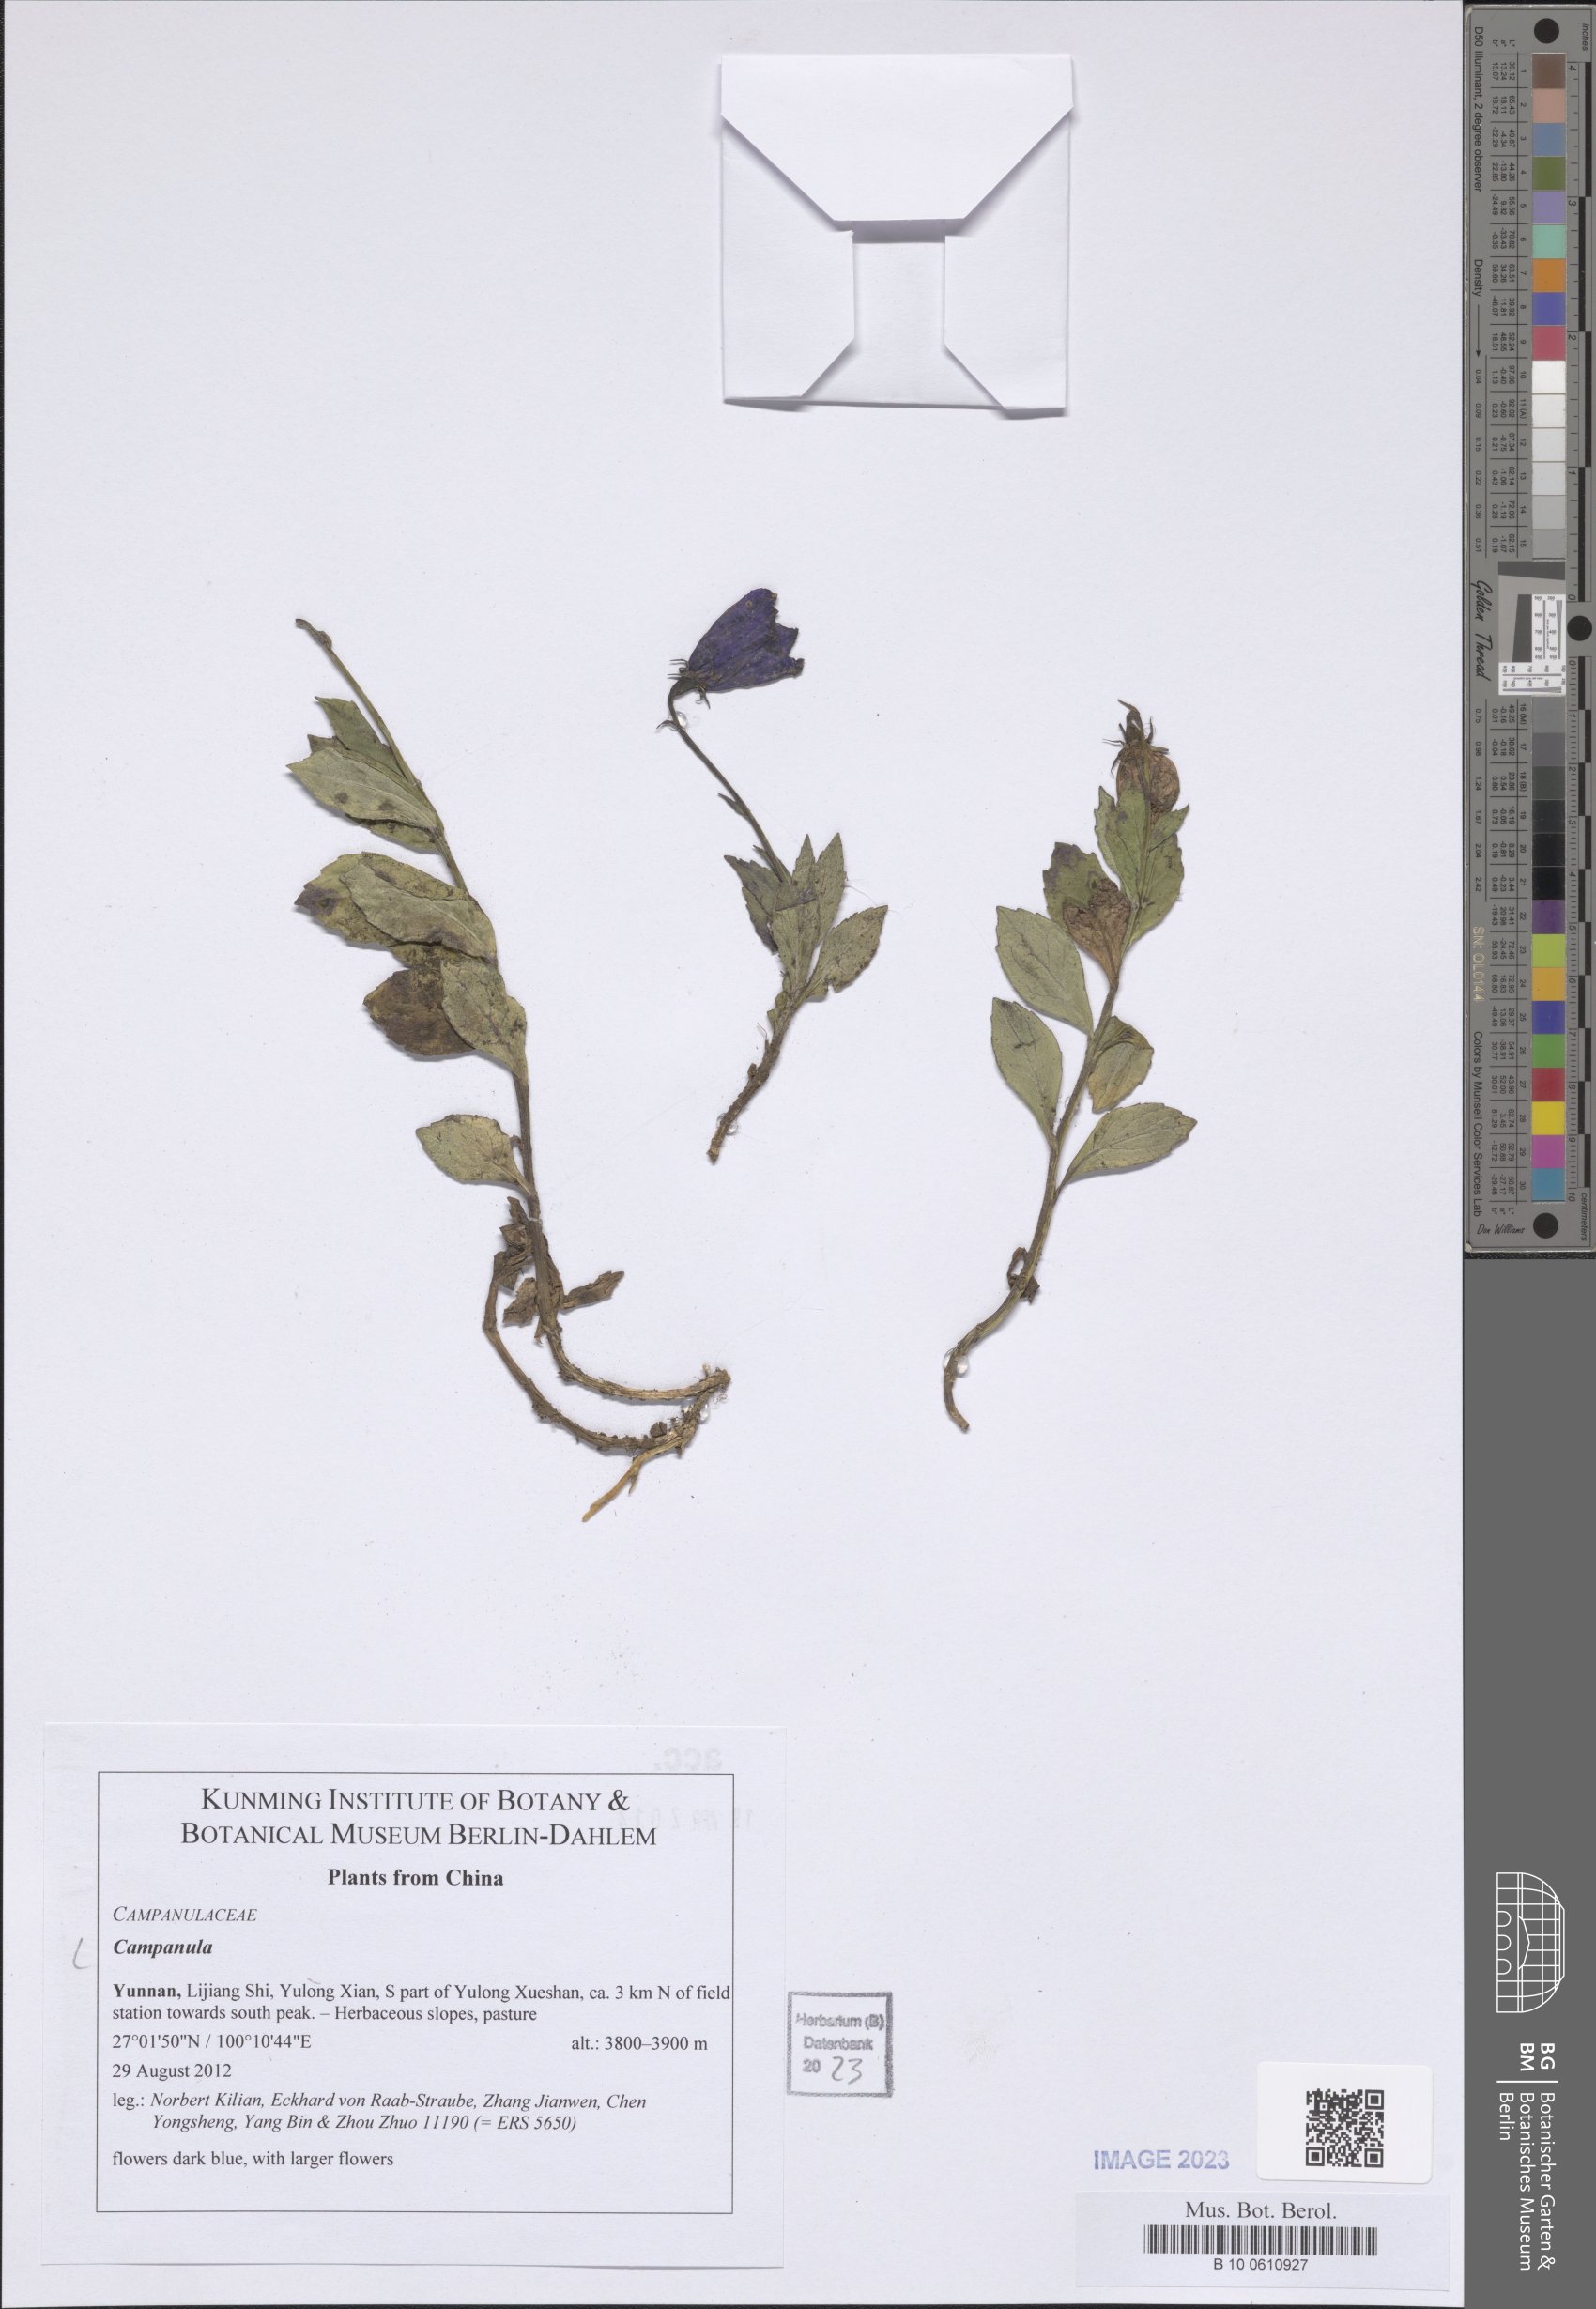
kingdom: Plantae
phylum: Tracheophyta
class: Magnoliopsida
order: Asterales
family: Campanulaceae
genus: Campanula
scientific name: Campanula
